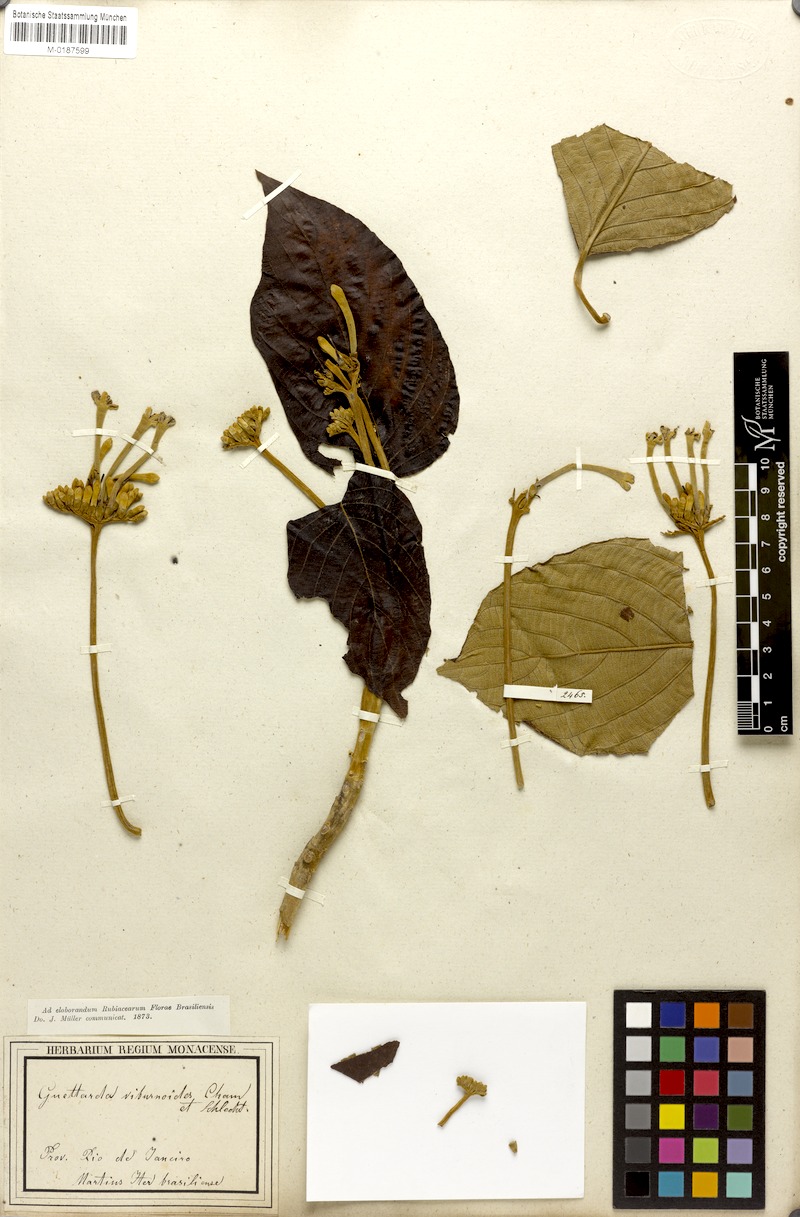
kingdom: Plantae
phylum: Tracheophyta
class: Magnoliopsida
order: Gentianales
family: Rubiaceae
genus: Guettarda
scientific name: Guettarda viburnoides
